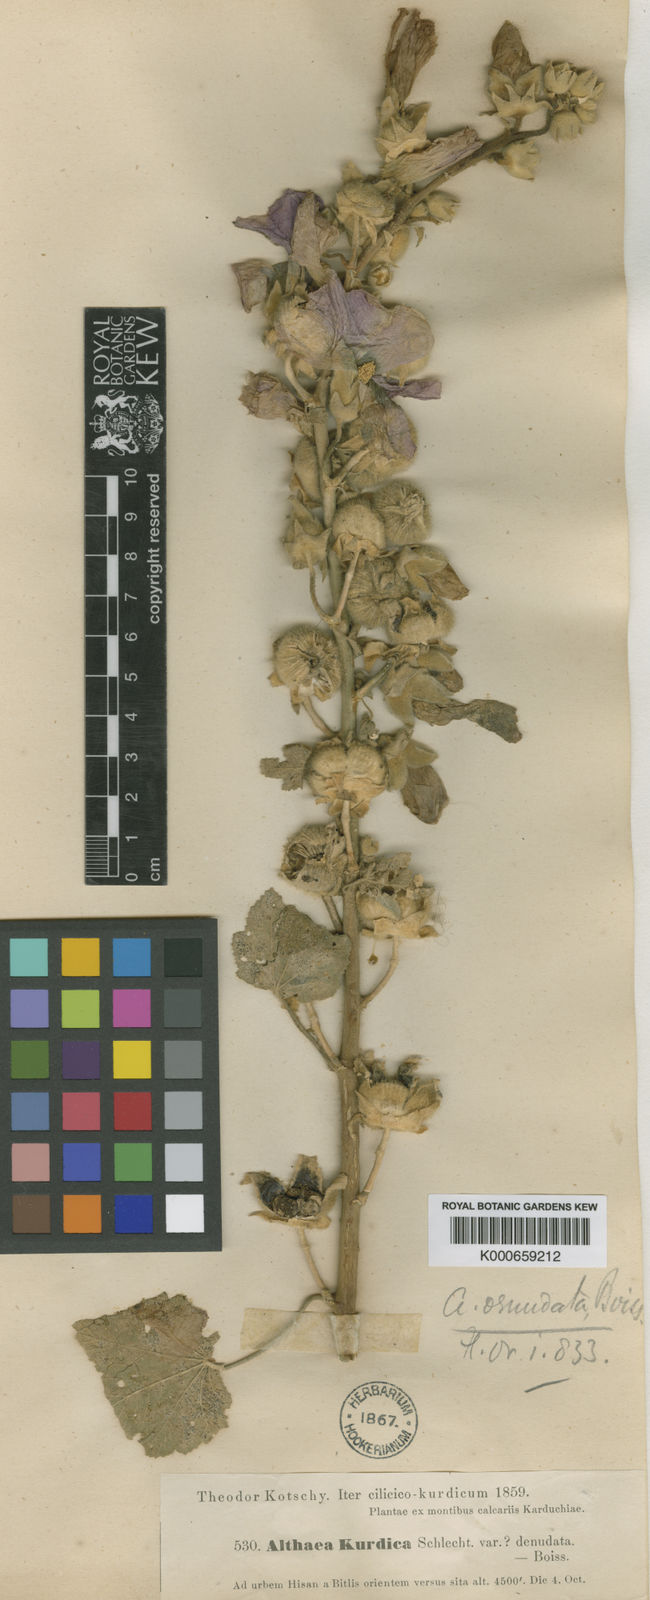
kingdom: Plantae
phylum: Tracheophyta
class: Magnoliopsida
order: Malvales
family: Malvaceae
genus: Alcea
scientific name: Alcea kurdica
